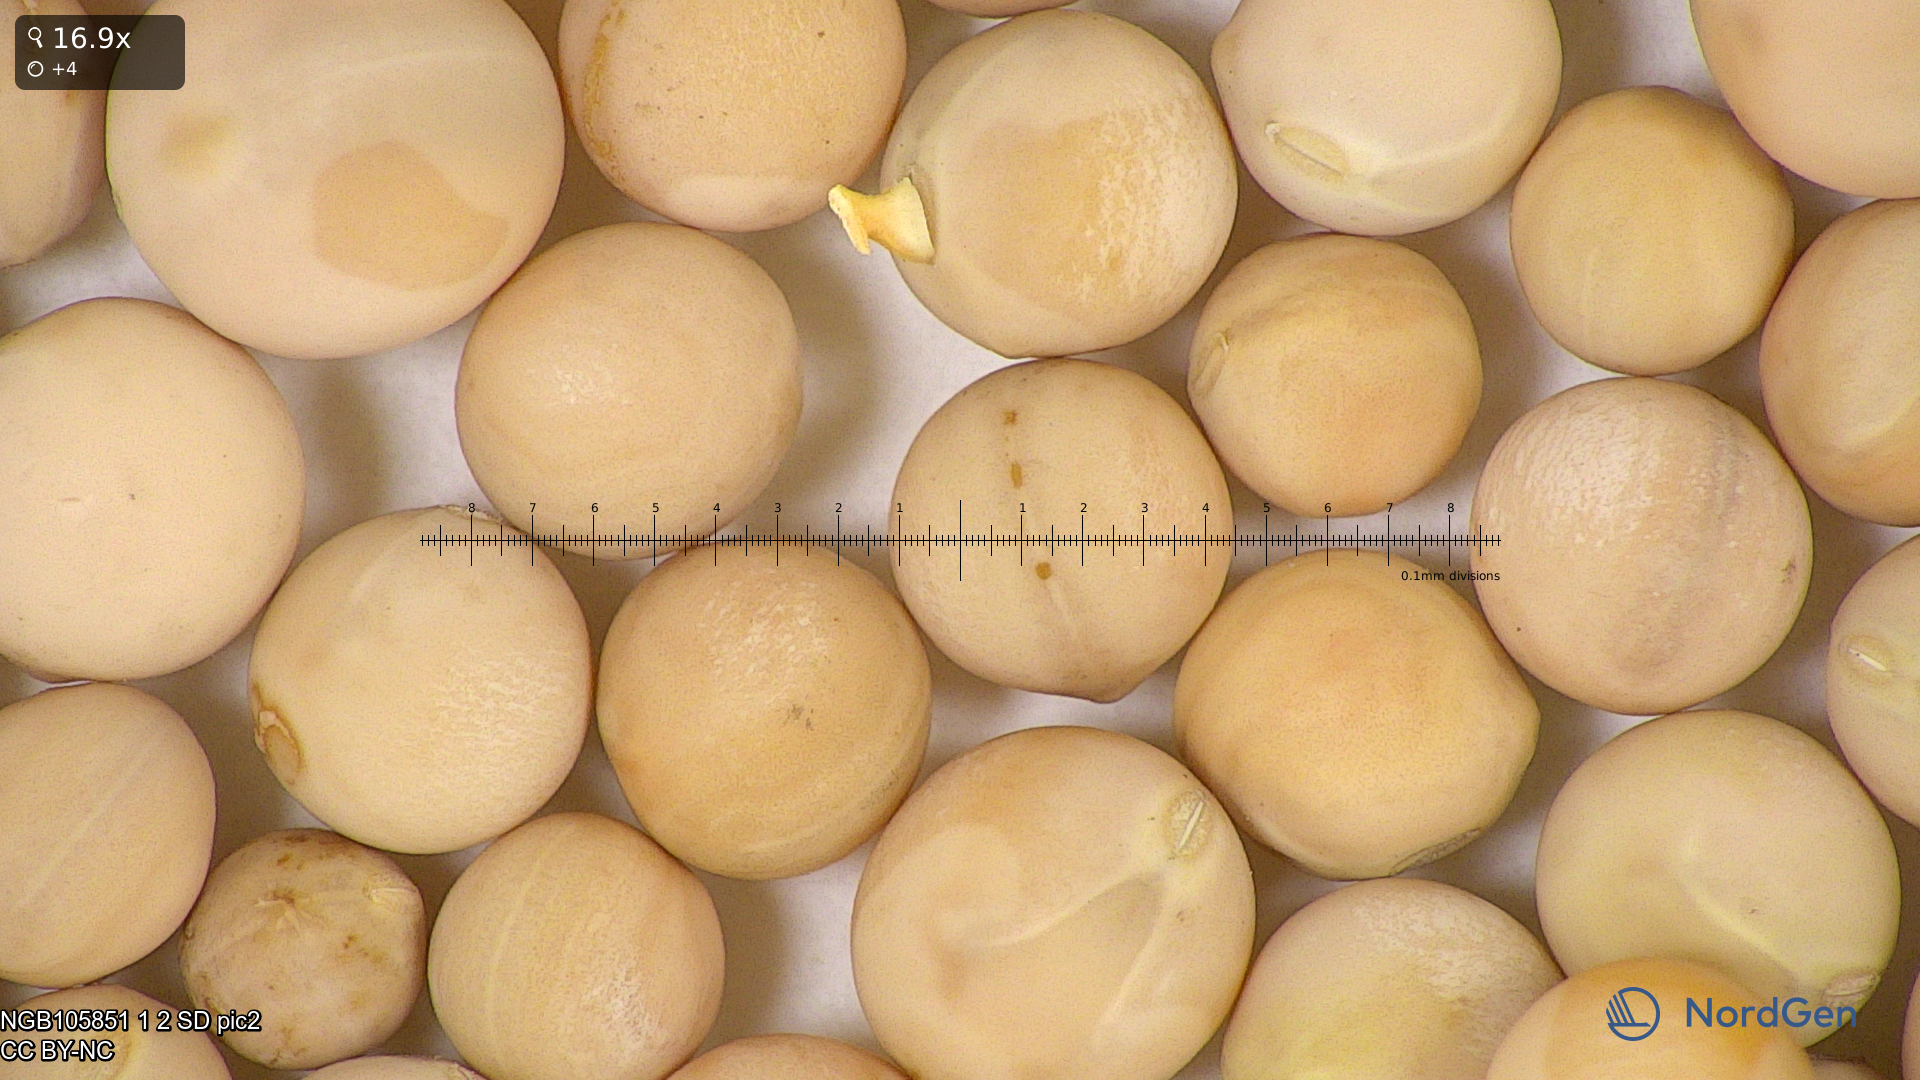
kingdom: Plantae
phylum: Tracheophyta
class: Magnoliopsida
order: Fabales
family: Fabaceae
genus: Lathyrus
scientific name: Lathyrus oleraceus
